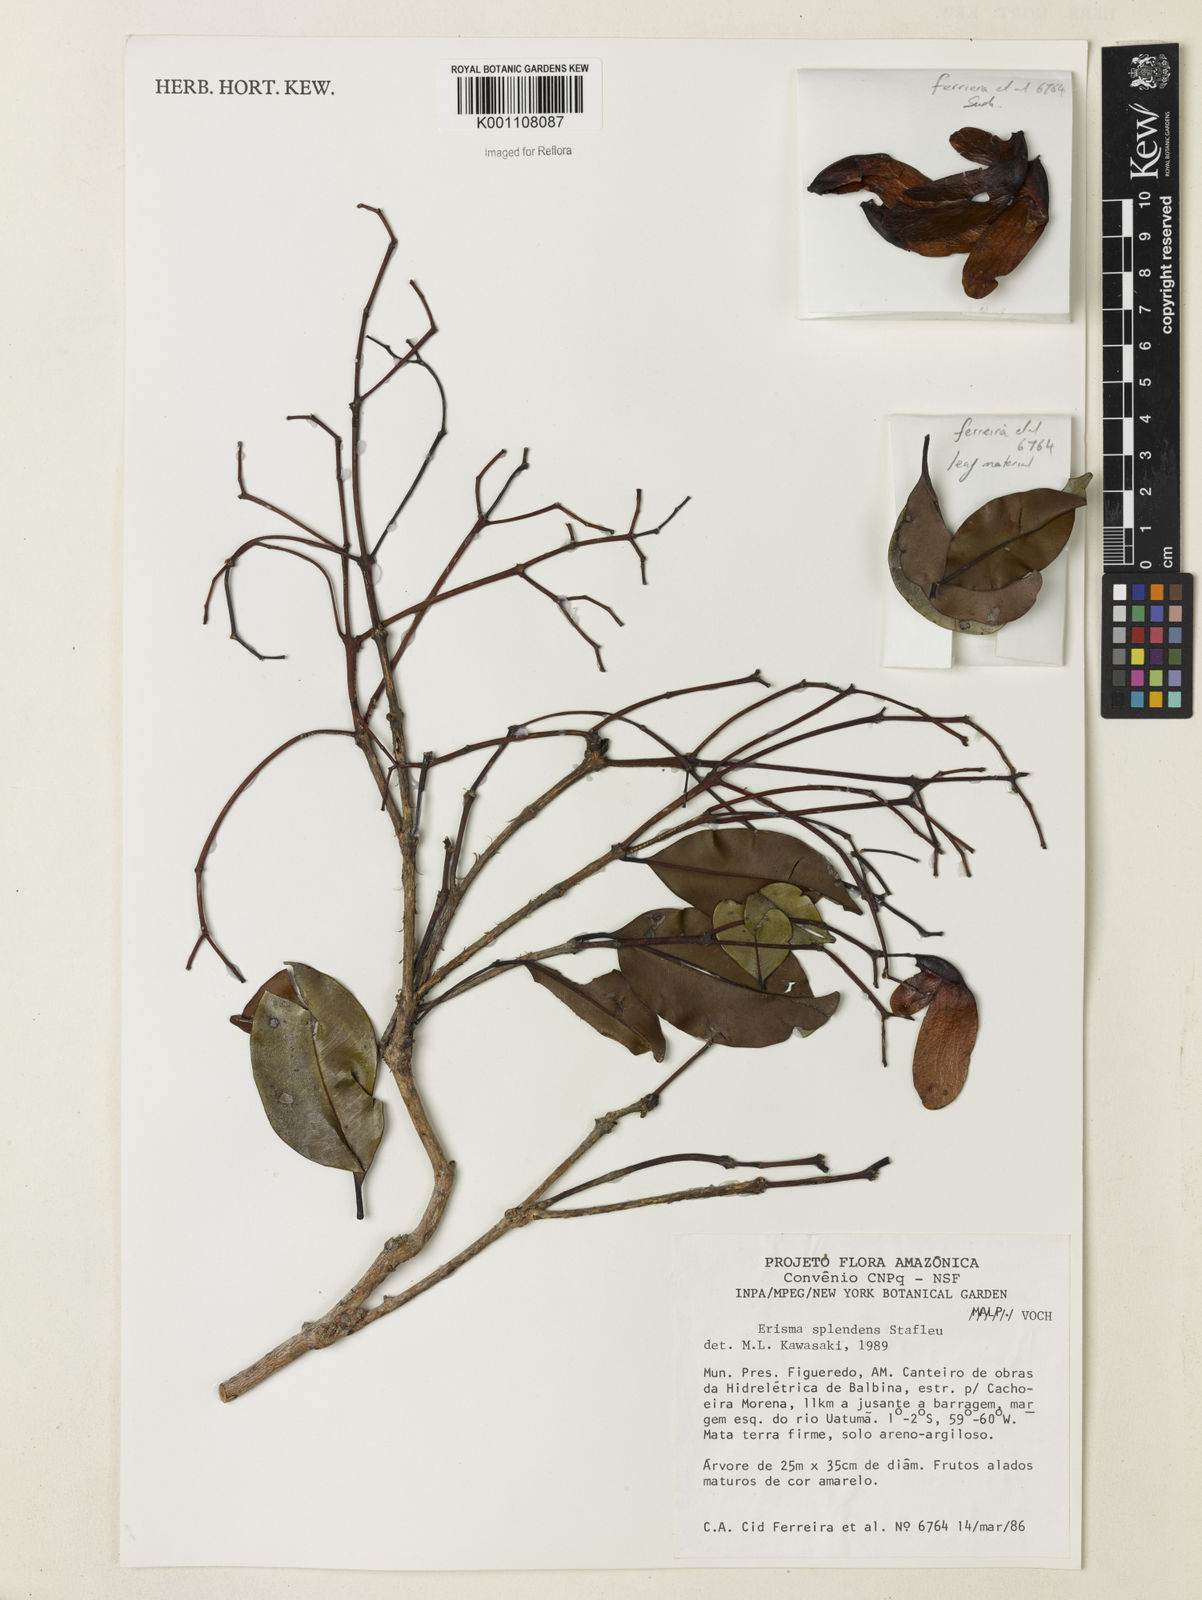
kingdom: Plantae
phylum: Tracheophyta
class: Magnoliopsida
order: Myrtales
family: Vochysiaceae
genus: Erisma
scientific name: Erisma splendens
